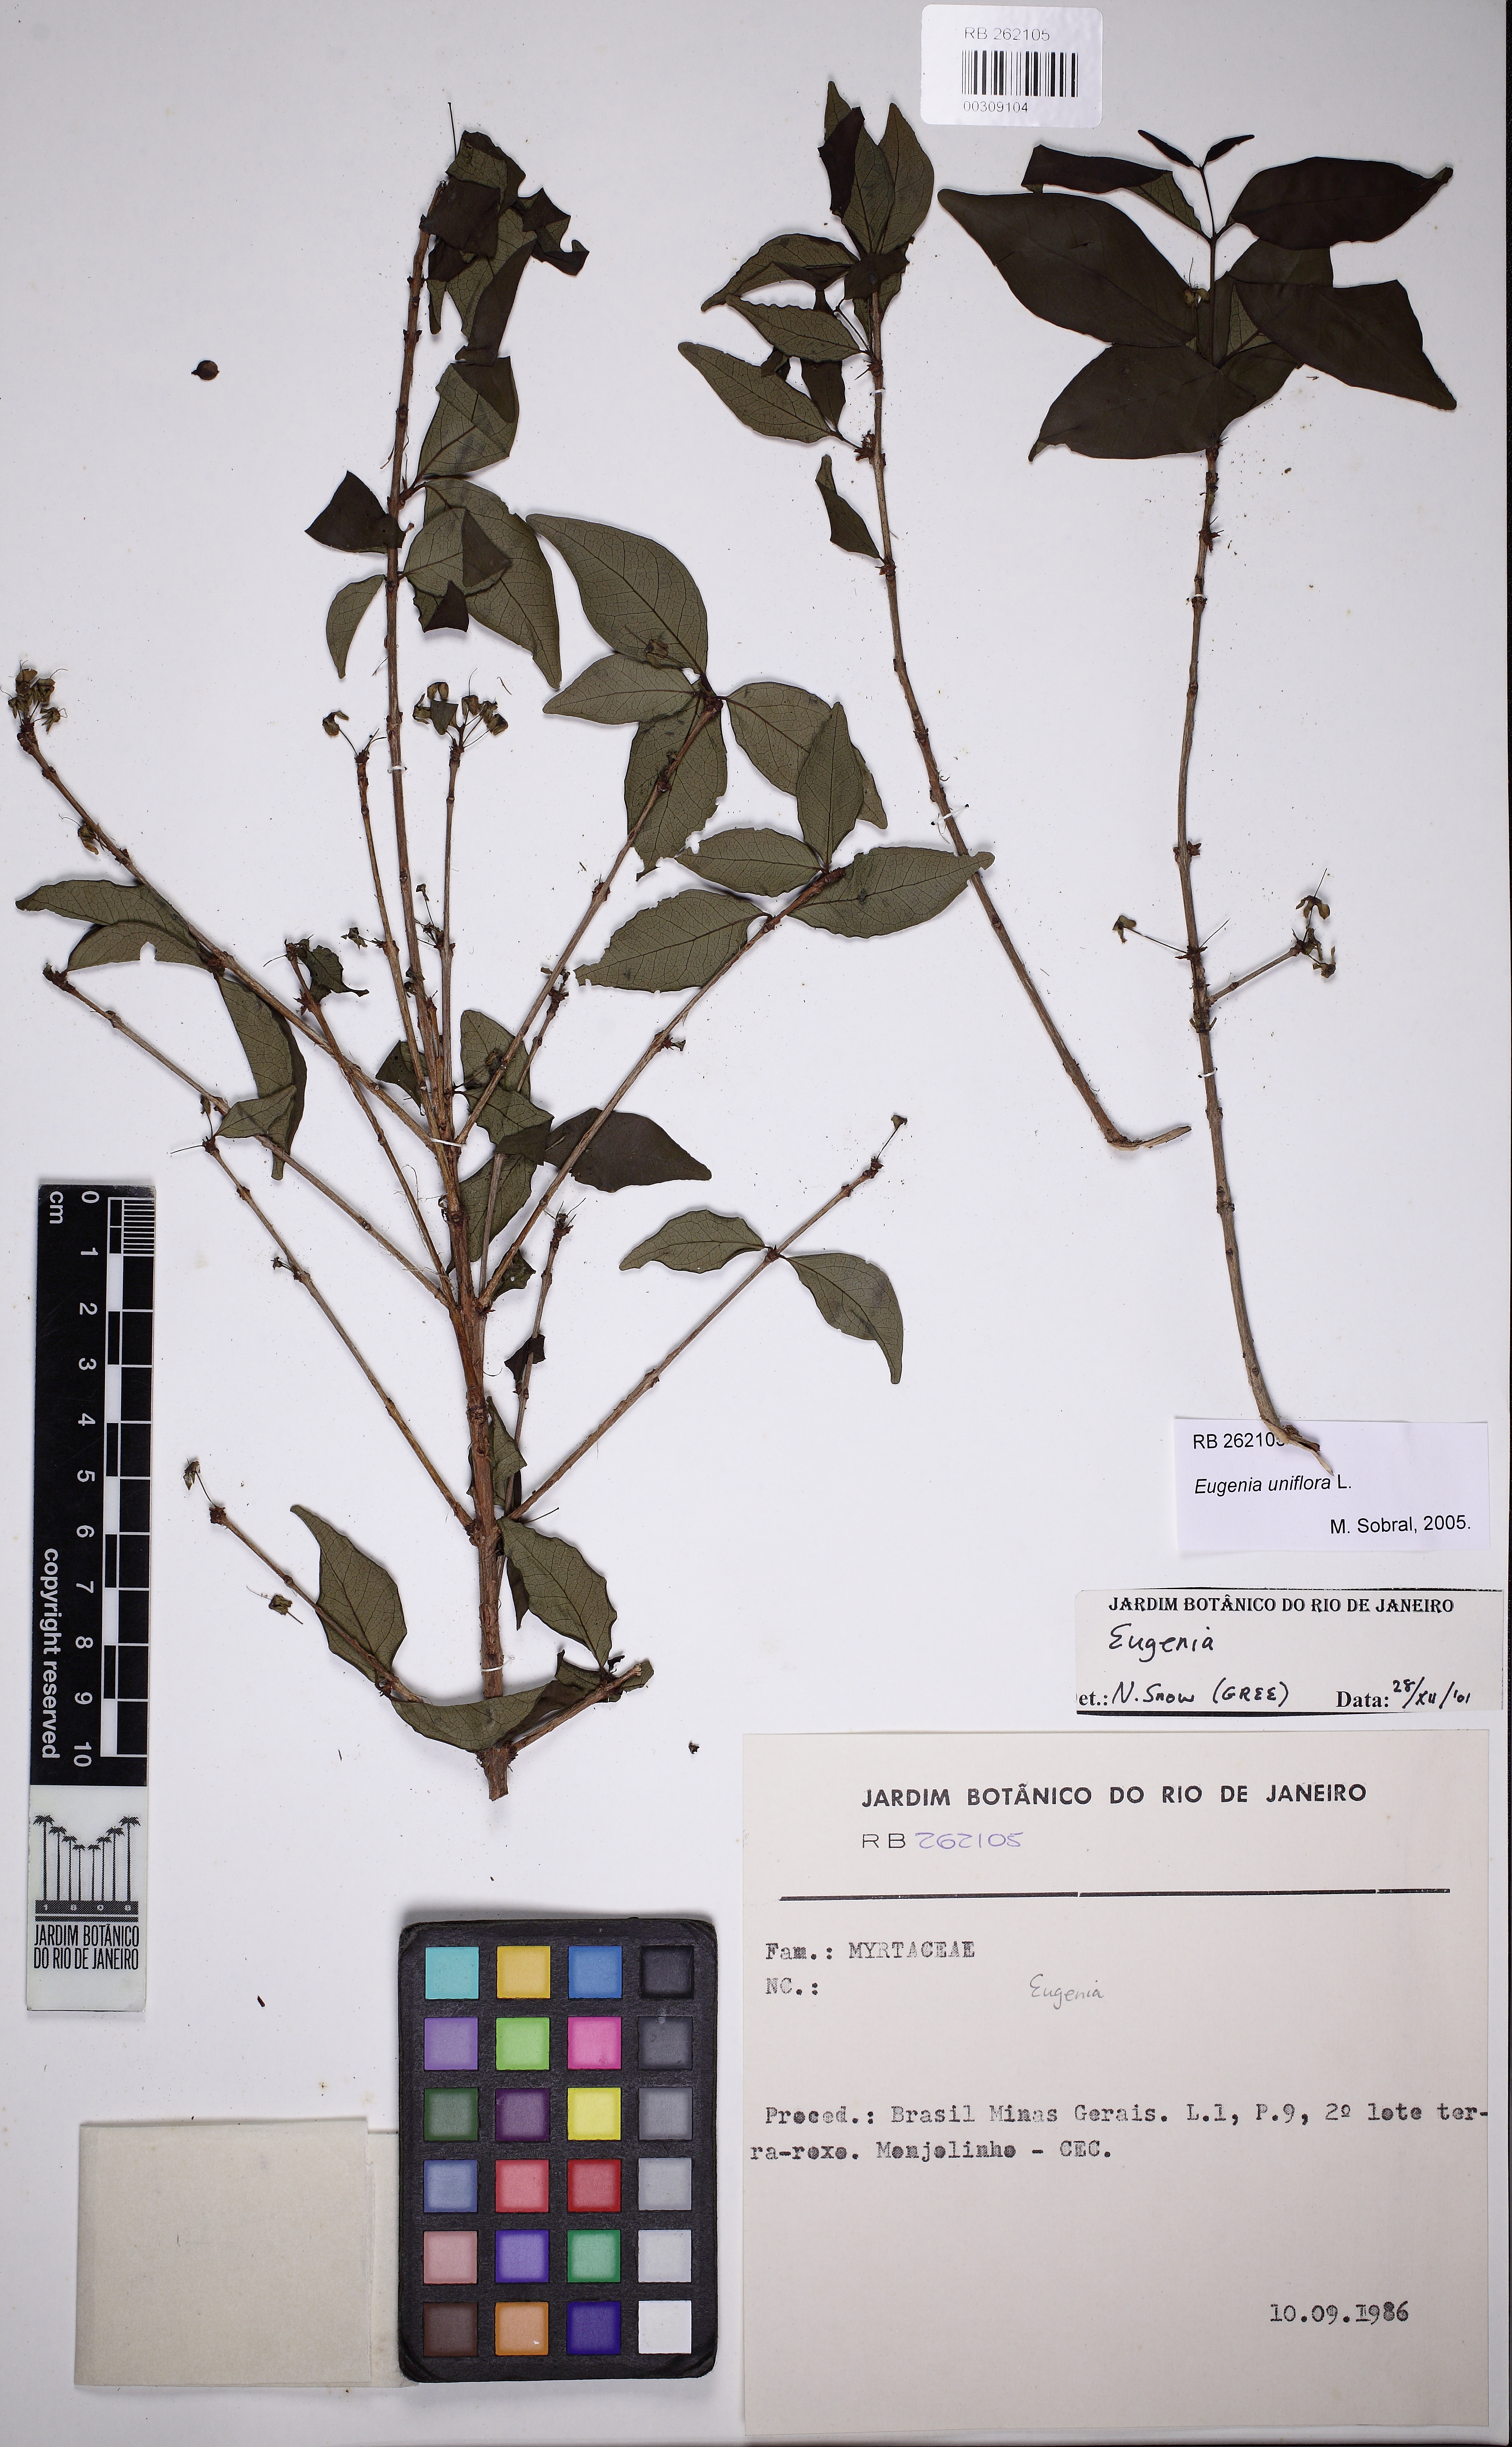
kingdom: Plantae
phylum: Tracheophyta
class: Magnoliopsida
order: Myrtales
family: Myrtaceae
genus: Eugenia
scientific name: Eugenia uniflora
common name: Surinam cherry
